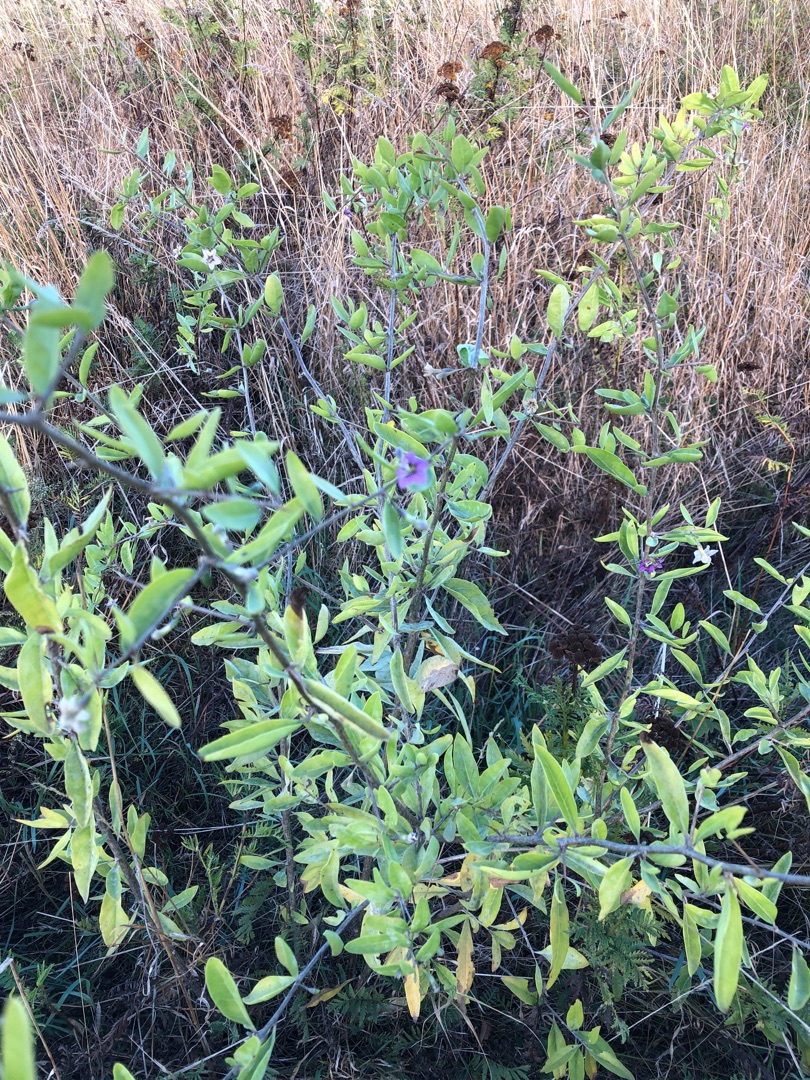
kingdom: Plantae
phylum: Tracheophyta
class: Magnoliopsida
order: Solanales
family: Solanaceae
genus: Lycium
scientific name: Lycium barbarum
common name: Bukketorn
